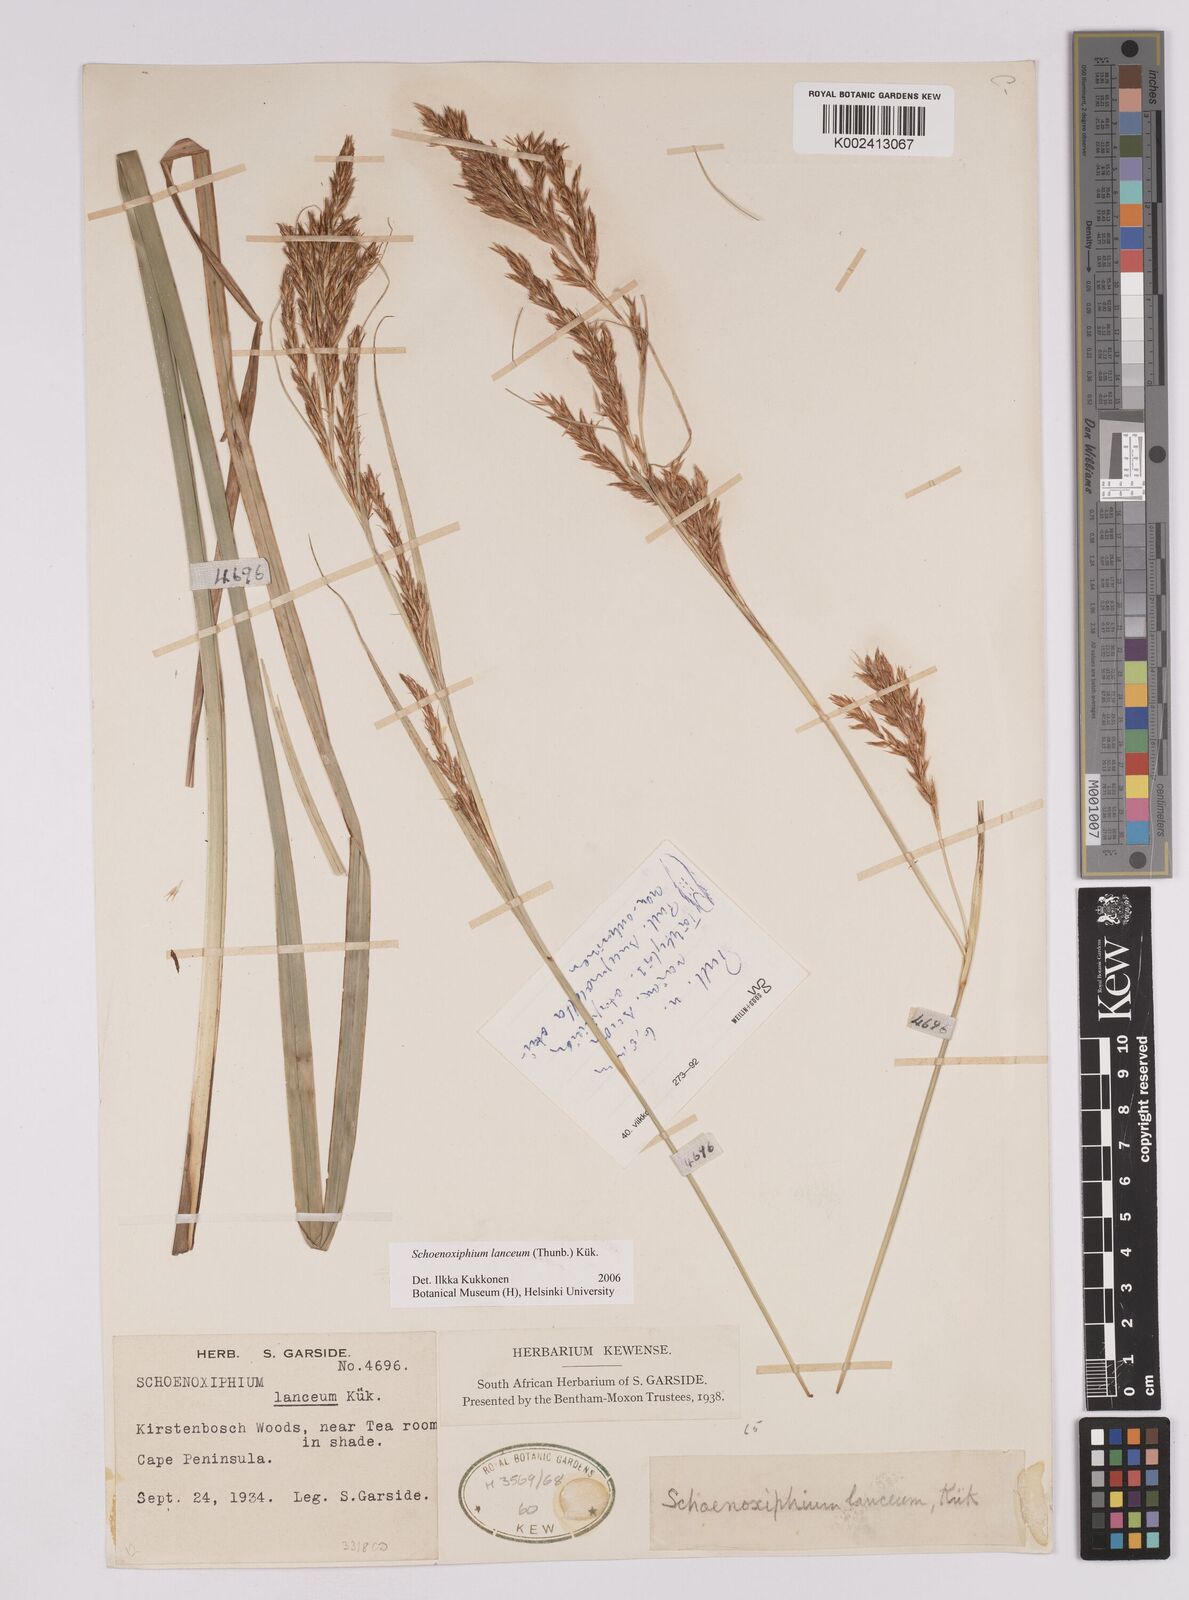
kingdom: Plantae
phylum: Tracheophyta
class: Liliopsida
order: Poales
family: Cyperaceae
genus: Carex
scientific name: Carex lancea
